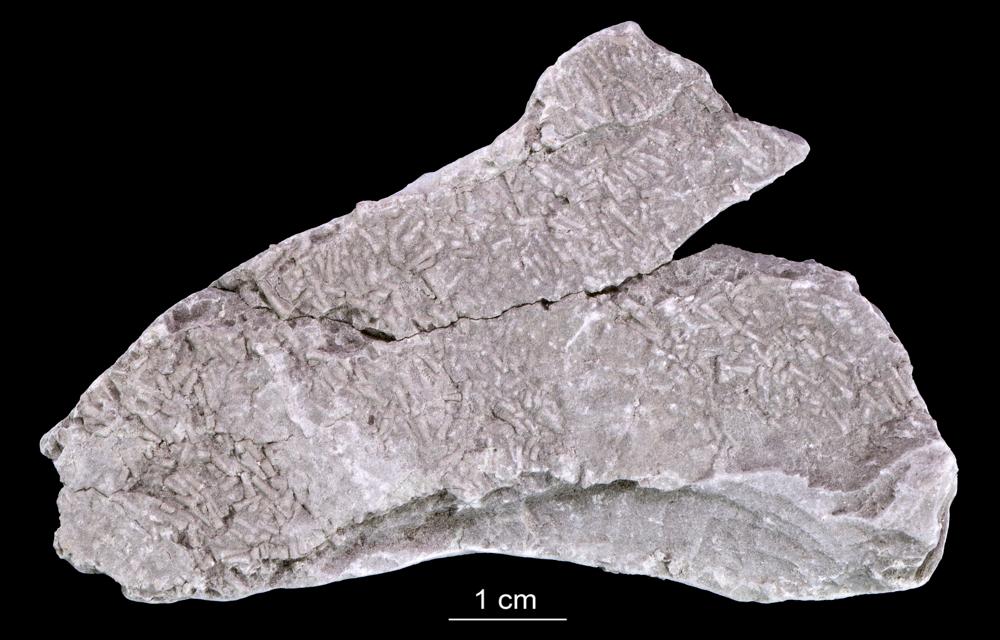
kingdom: Animalia
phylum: Annelida
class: Polychaeta
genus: Volborthella
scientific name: Volborthella tenuis
